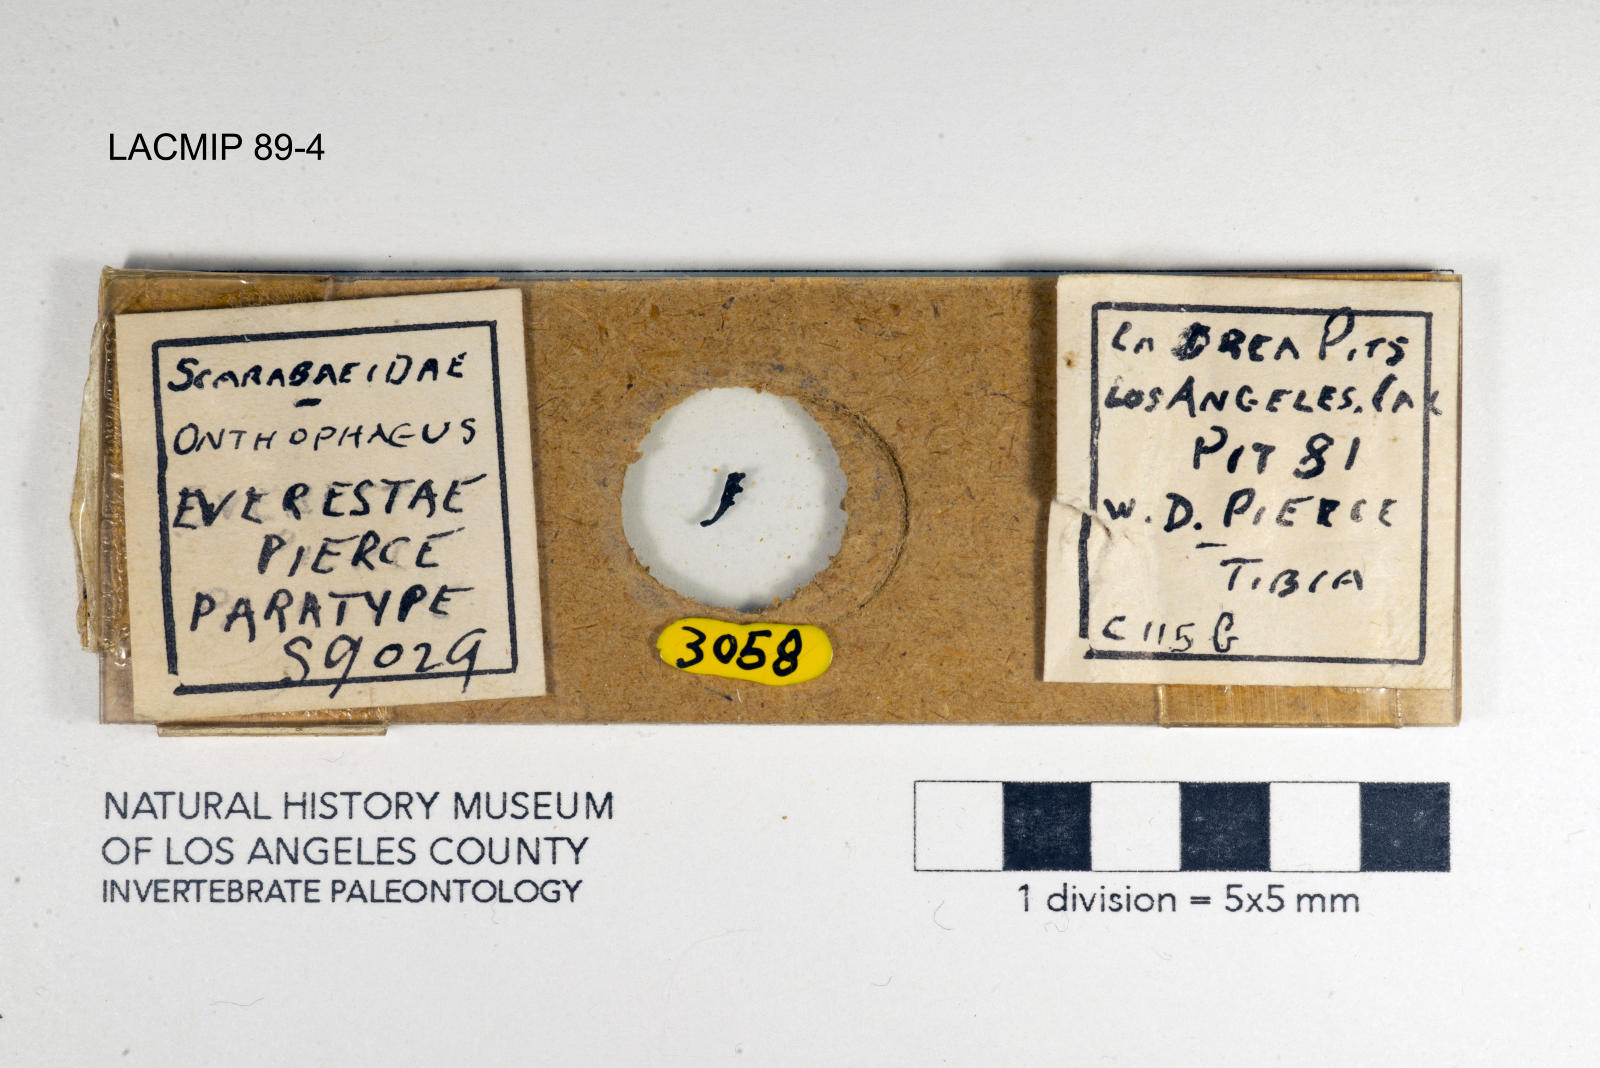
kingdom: Animalia
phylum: Arthropoda
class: Insecta
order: Coleoptera
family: Scarabaeidae
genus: Canthon
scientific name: Canthon
